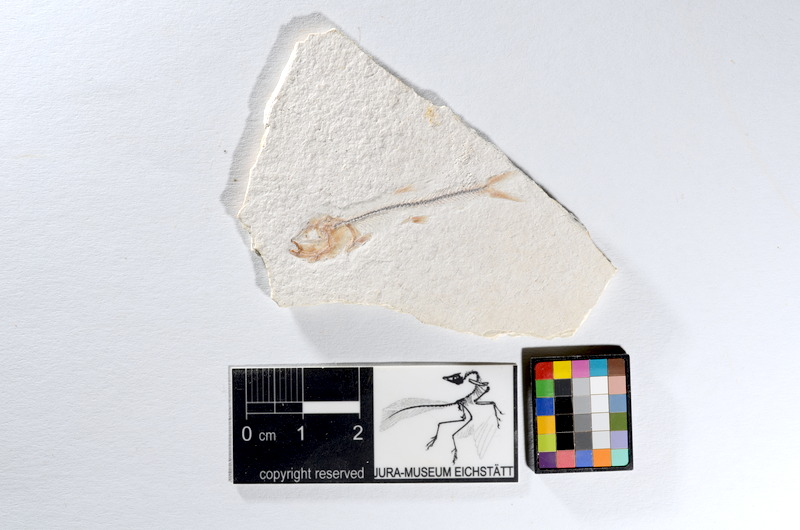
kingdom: Animalia
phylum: Chordata
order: Salmoniformes
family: Orthogonikleithridae
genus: Orthogonikleithrus
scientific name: Orthogonikleithrus hoelli
